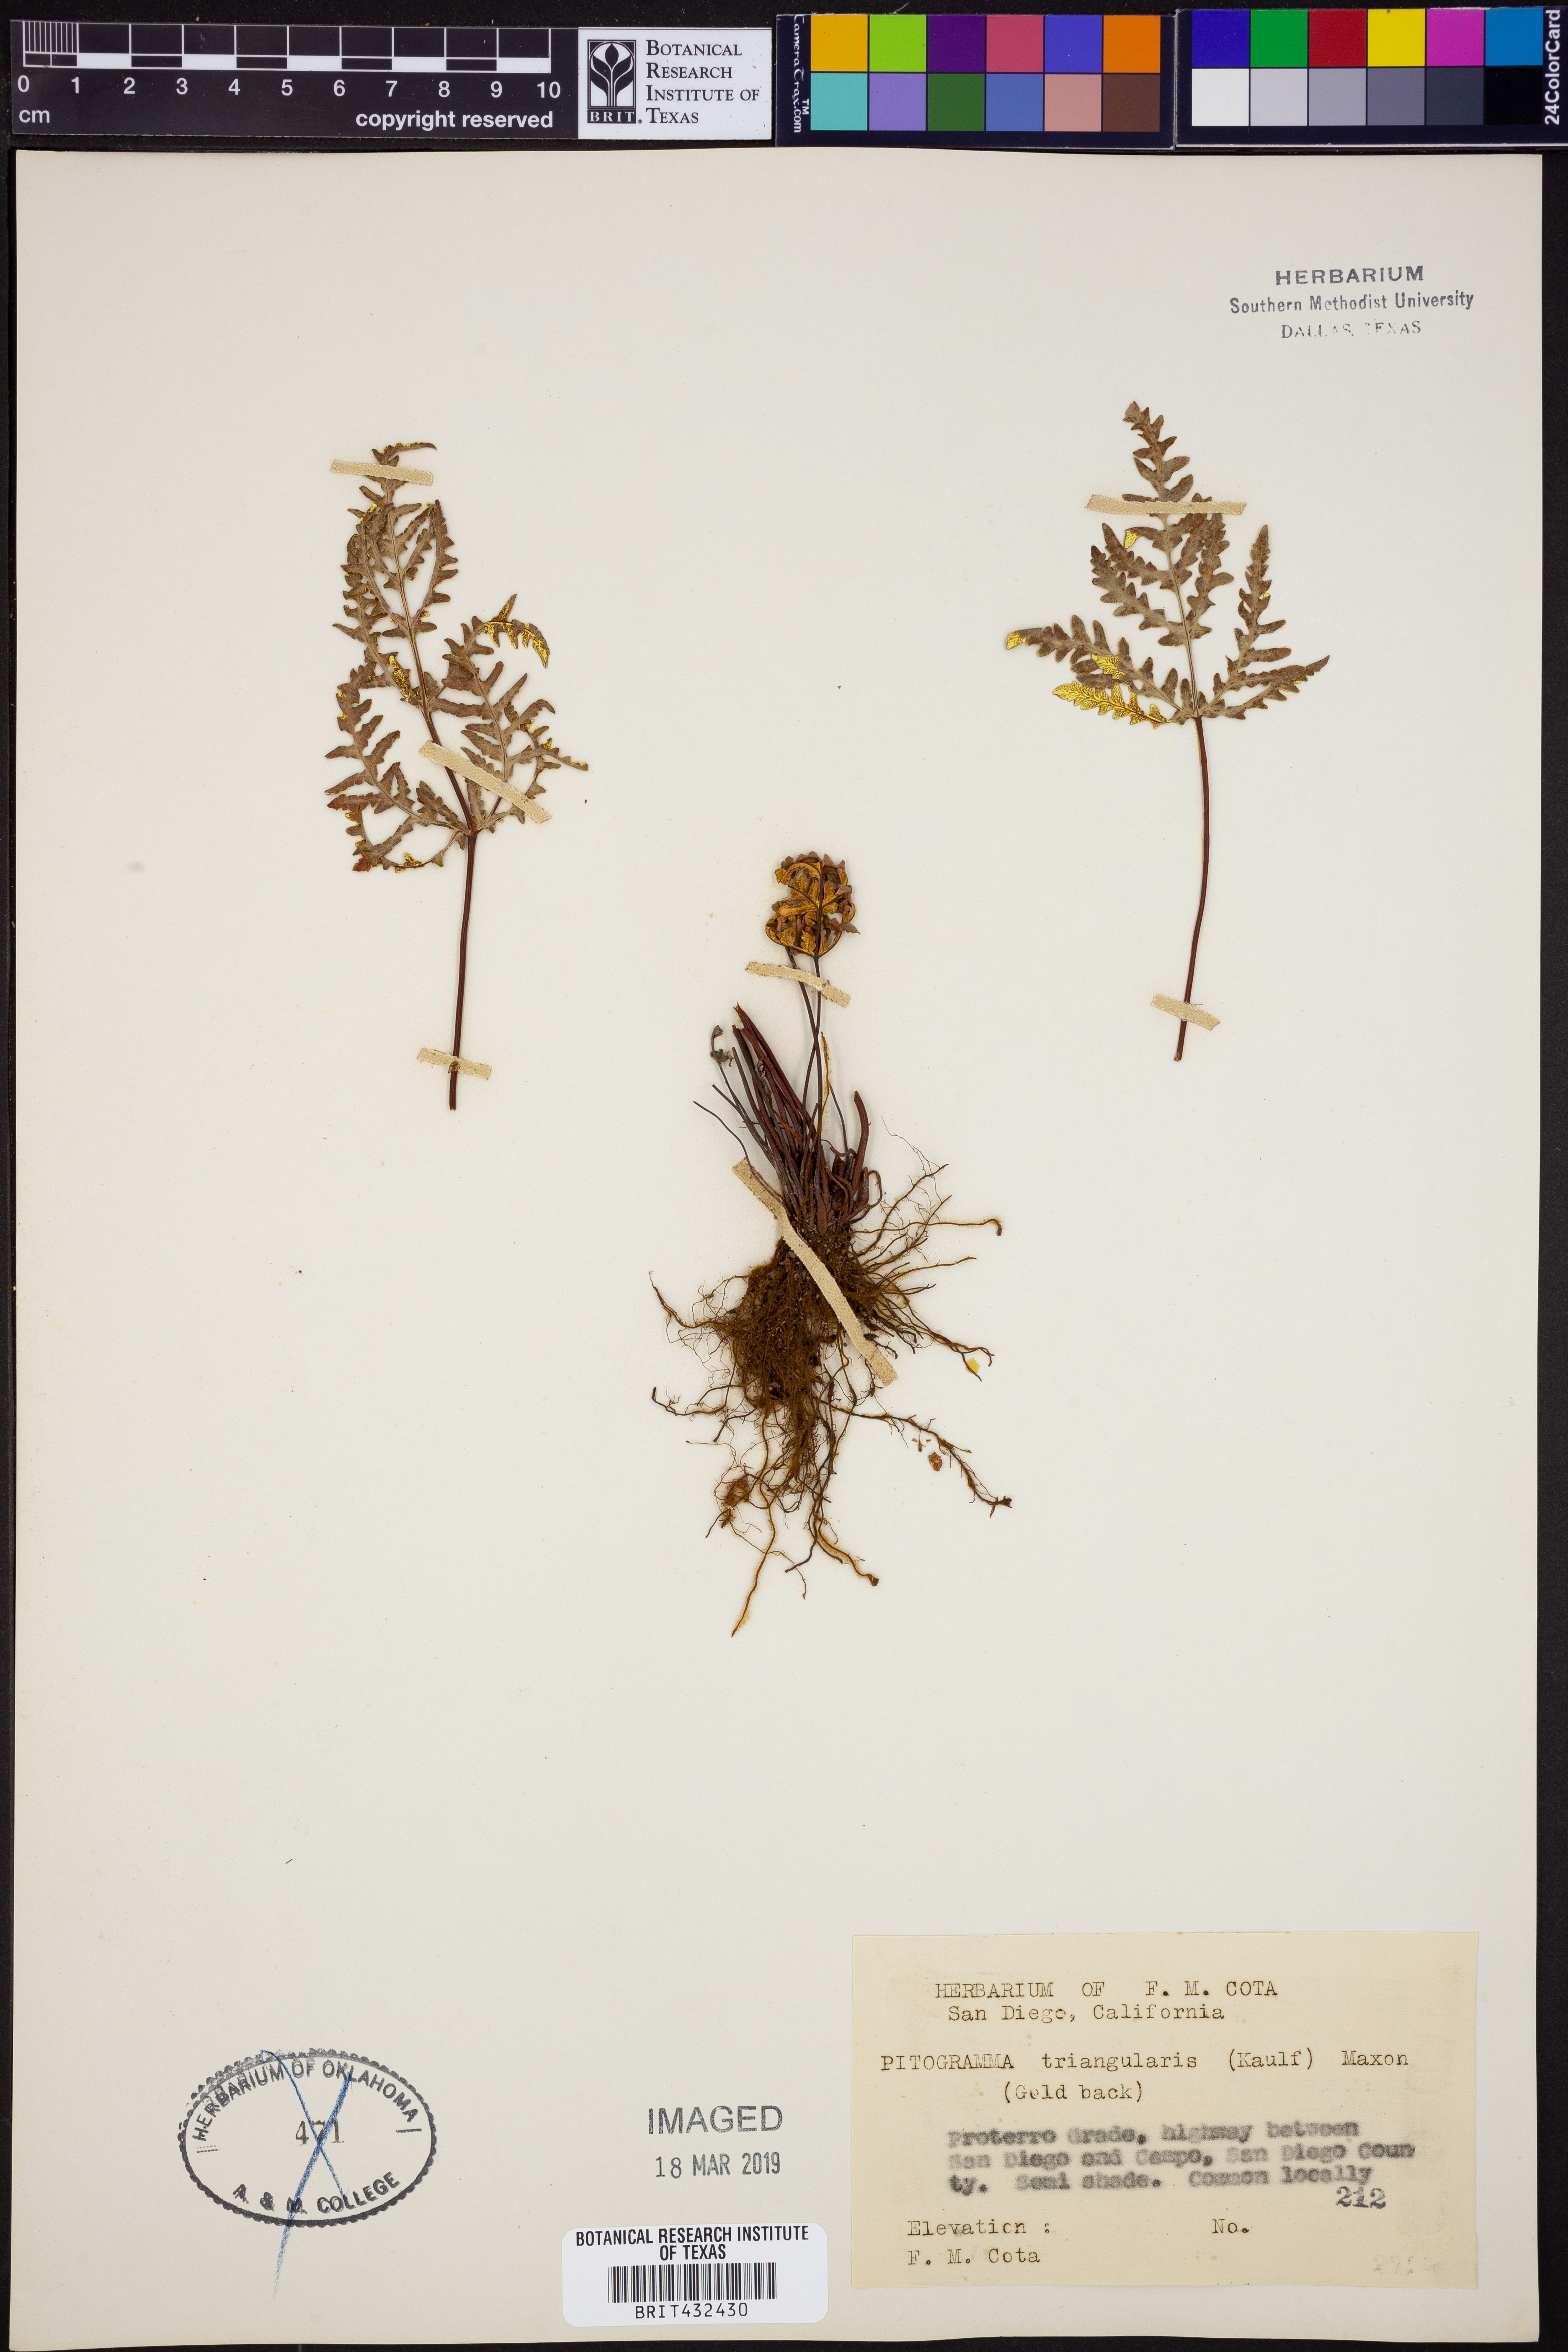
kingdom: Plantae
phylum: Tracheophyta
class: Polypodiopsida
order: Polypodiales
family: Pteridaceae
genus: Pentagramma
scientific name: Pentagramma triangularis
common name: Gold fern
